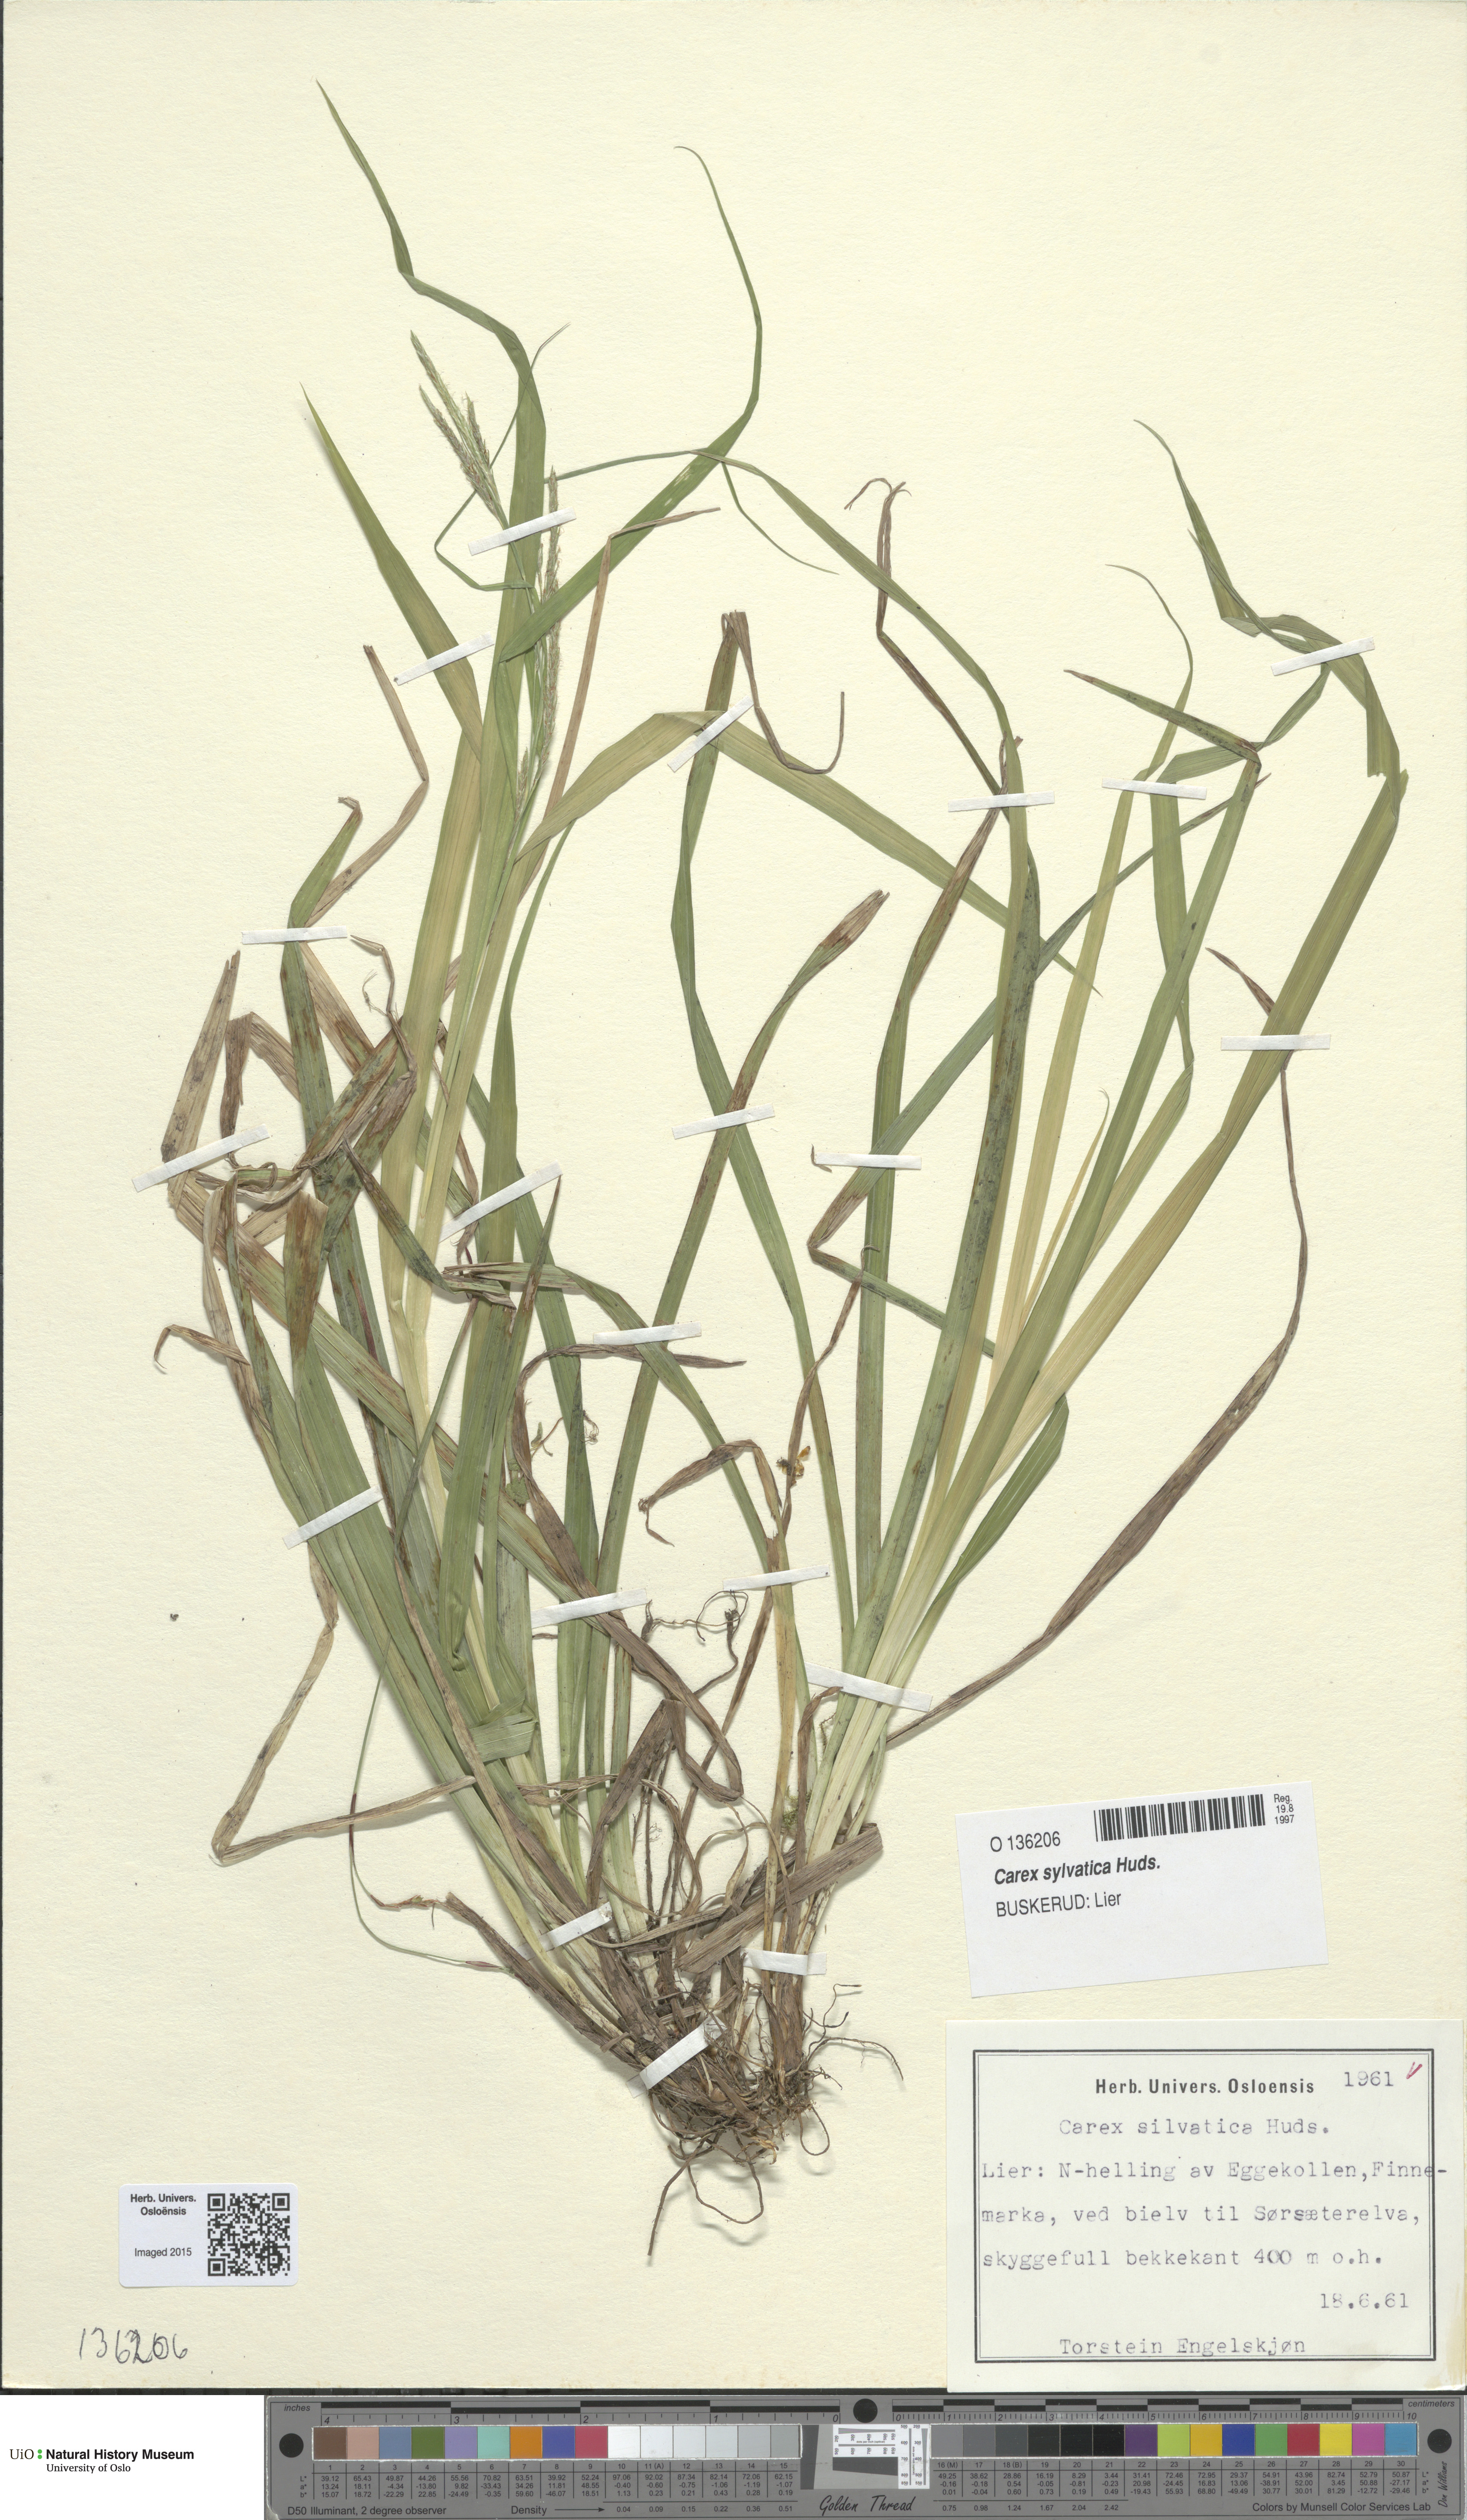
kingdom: Plantae
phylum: Tracheophyta
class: Liliopsida
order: Poales
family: Cyperaceae
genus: Carex
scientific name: Carex sylvatica
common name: Wood-sedge
